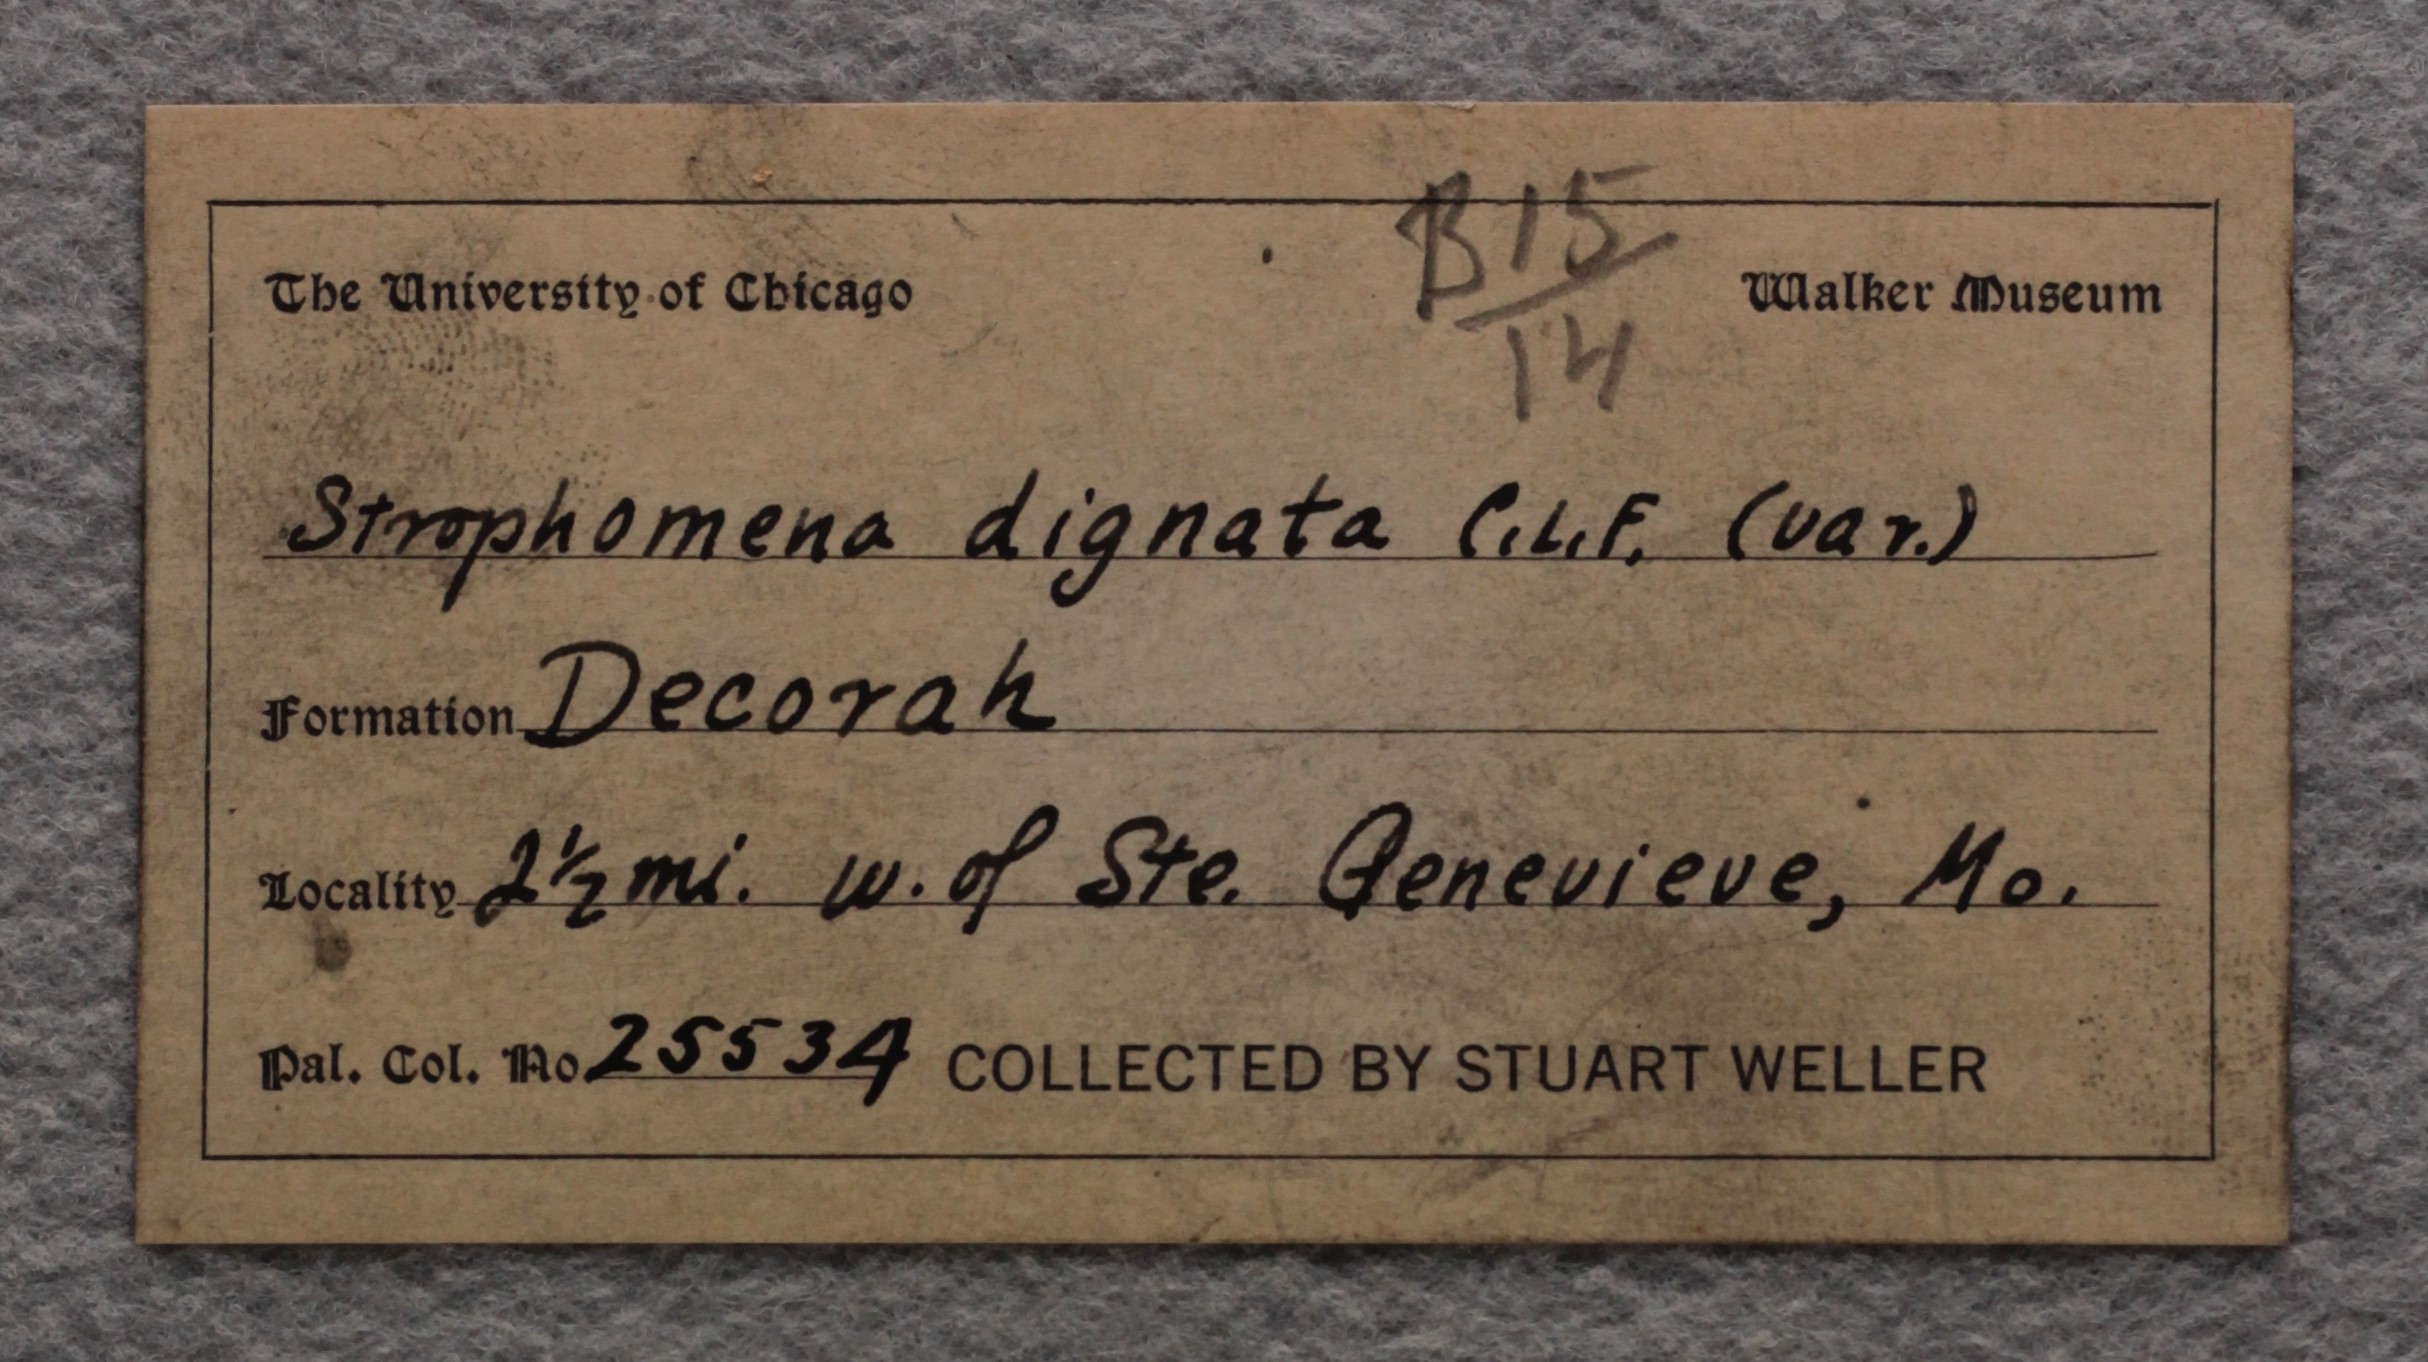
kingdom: Animalia
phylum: Brachiopoda
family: Strophomenidae
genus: Strophomena
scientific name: Strophomena dignata
